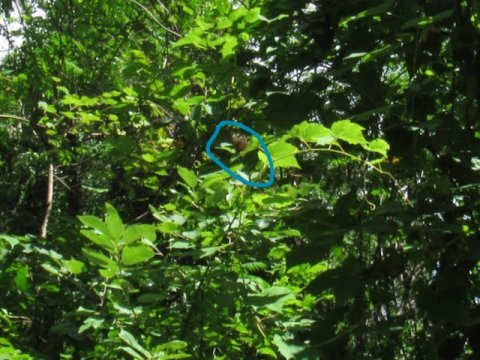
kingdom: Animalia
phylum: Arthropoda
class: Insecta
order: Lepidoptera
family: Nymphalidae
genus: Limenitis
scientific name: Limenitis arthemis
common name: Red-spotted Admiral
